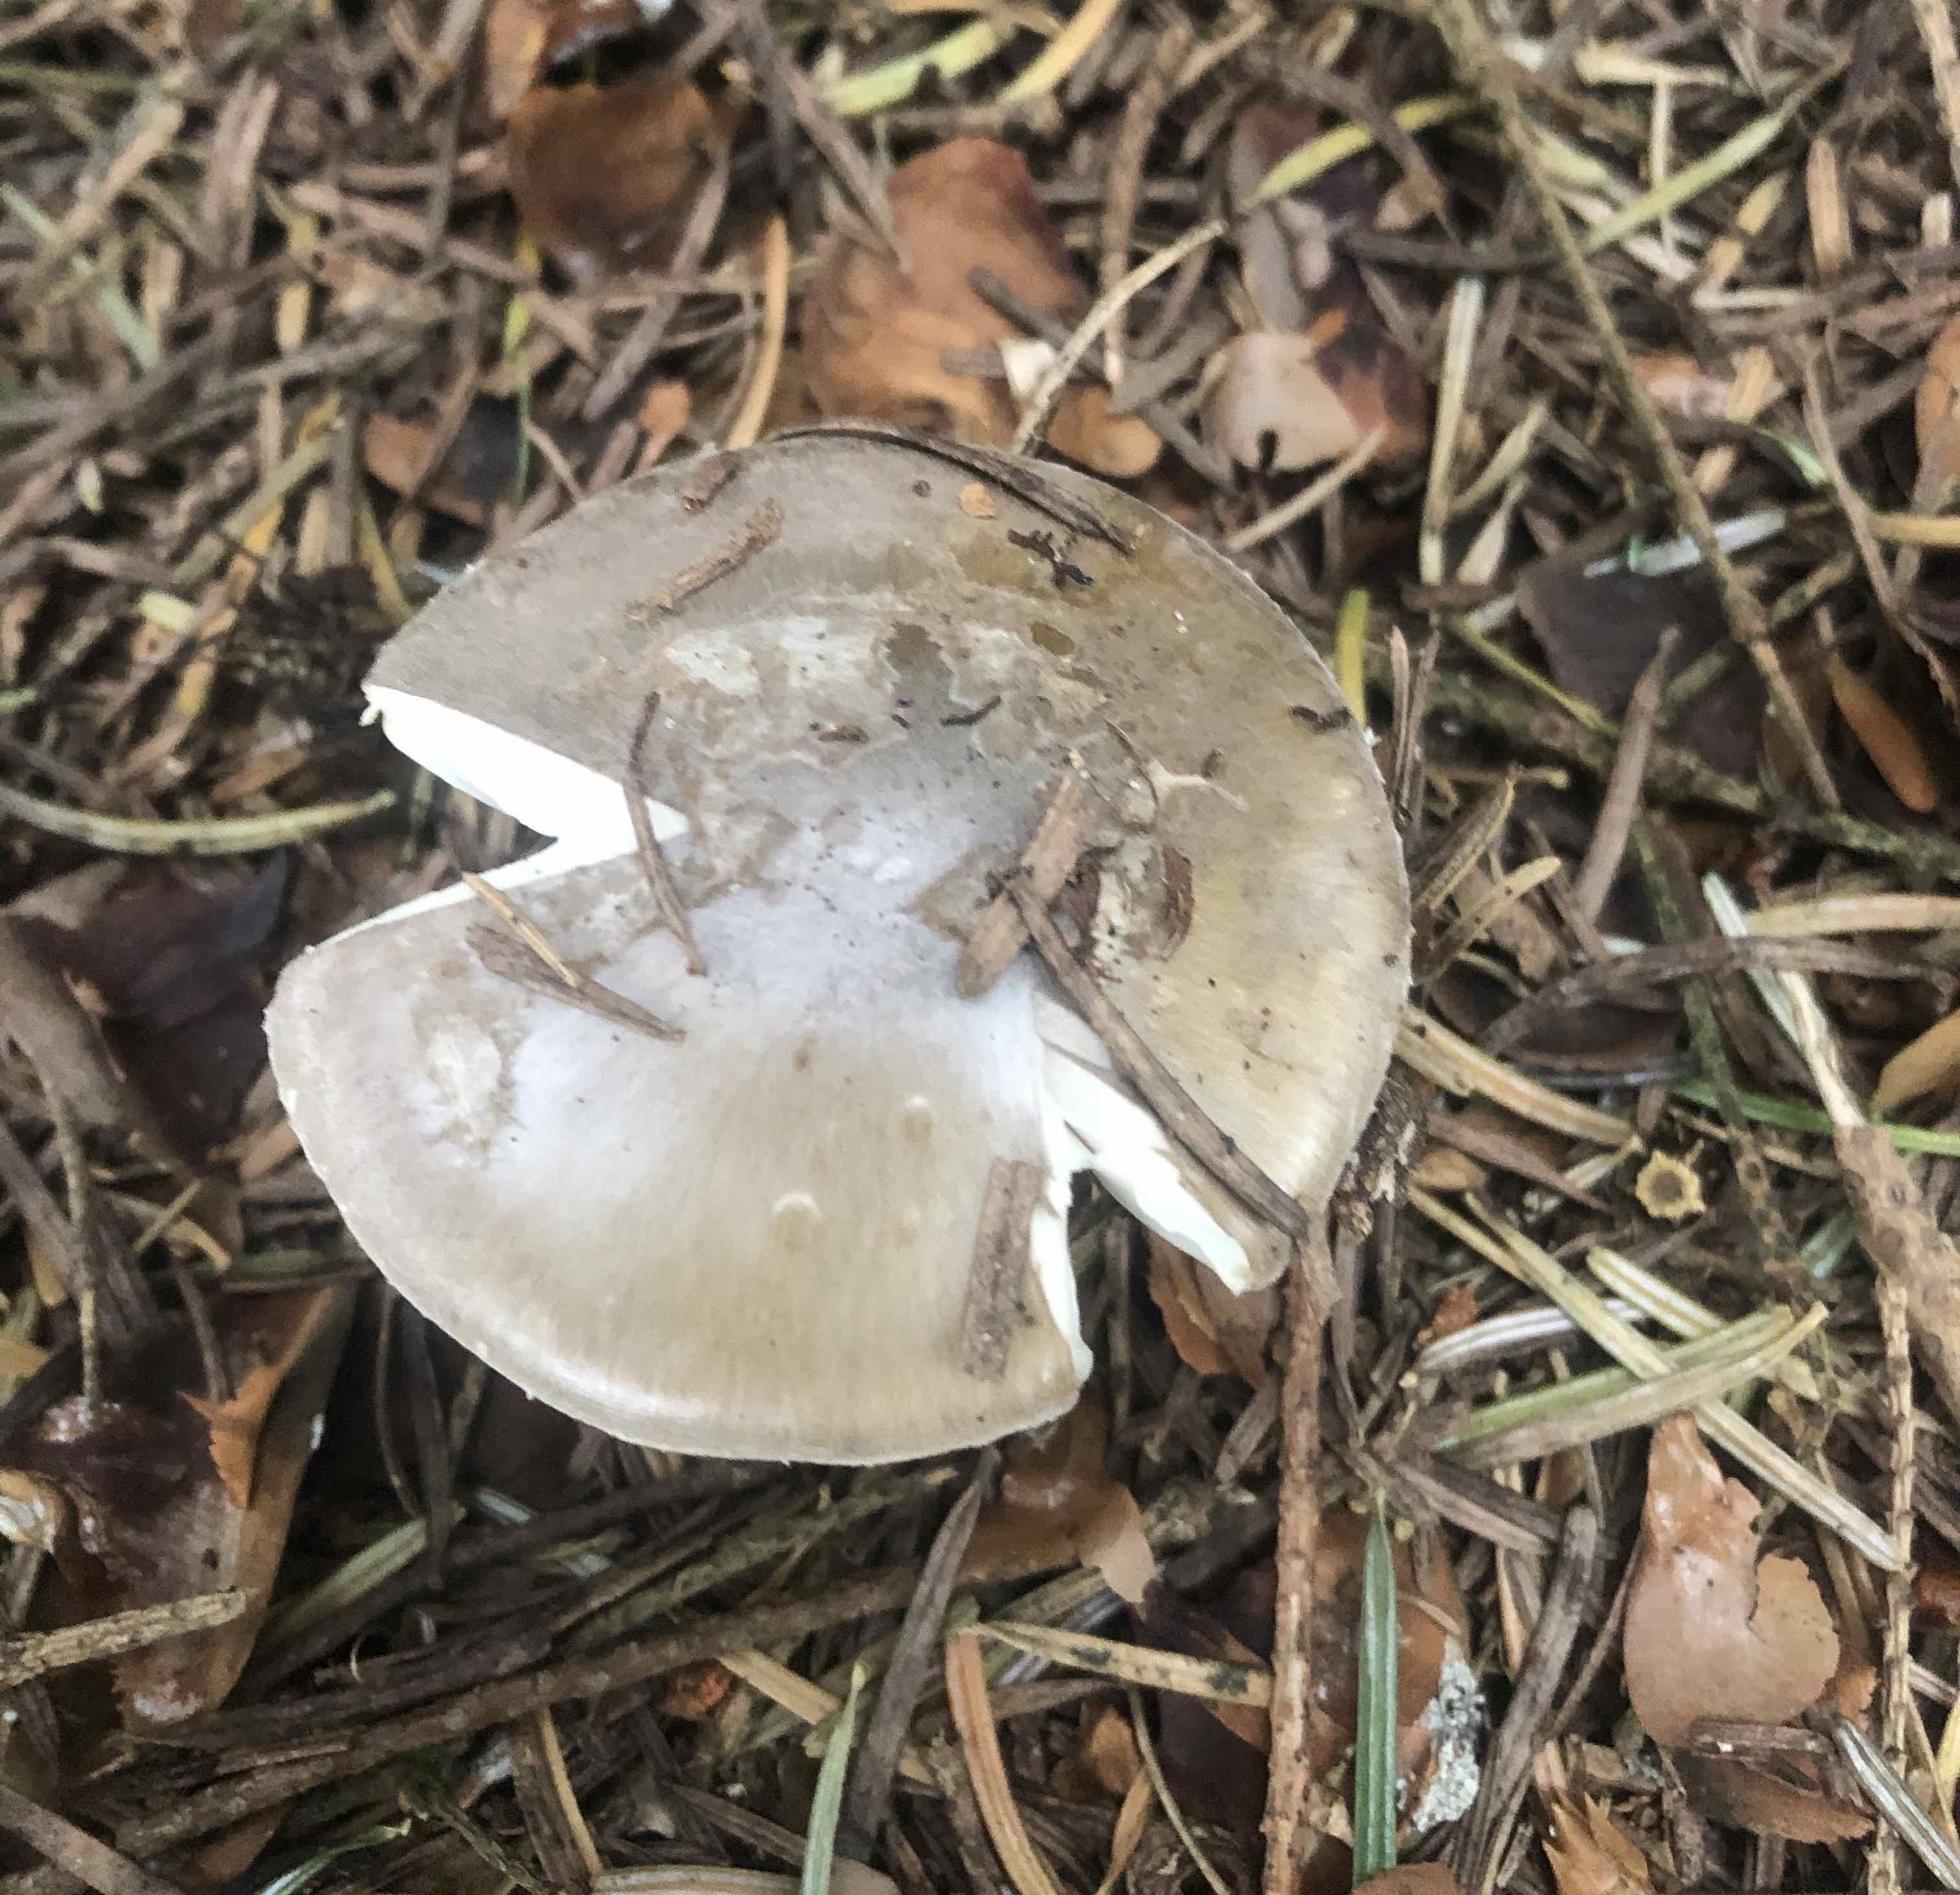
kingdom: Fungi
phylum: Basidiomycota
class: Agaricomycetes
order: Agaricales
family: Amanitaceae
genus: Amanita
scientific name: Amanita porphyria
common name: porfyr-fluesvamp
